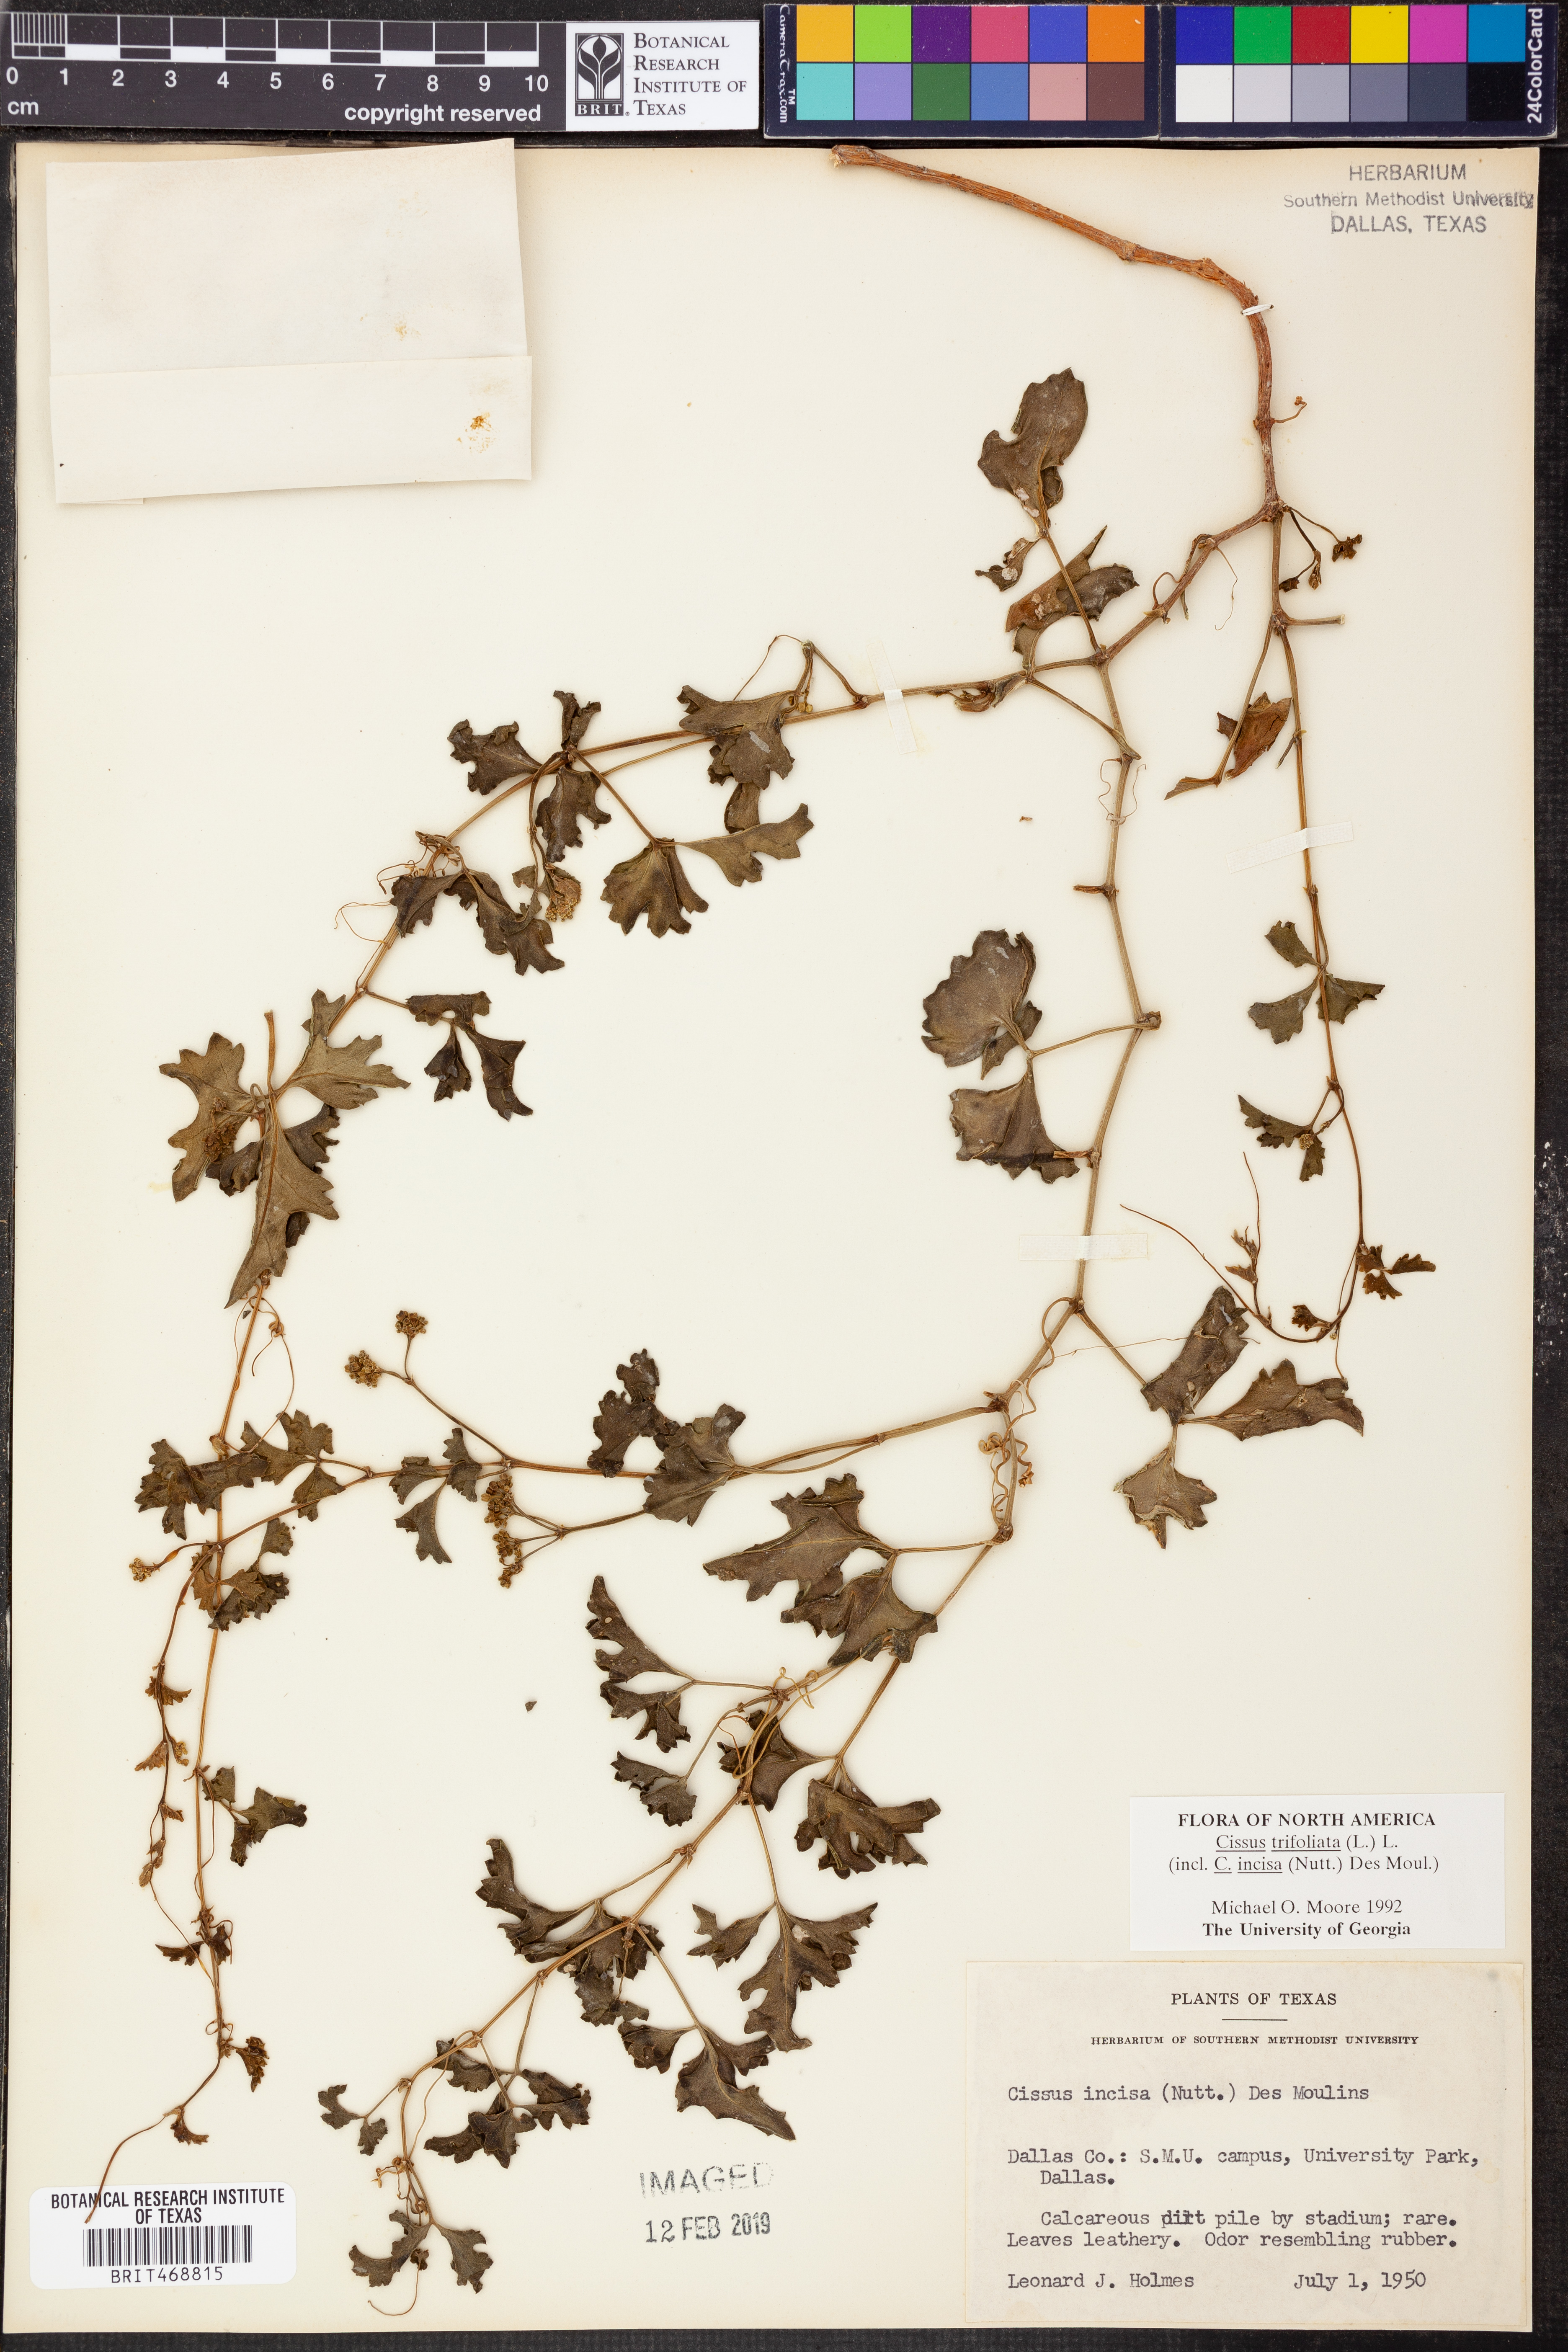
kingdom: Plantae
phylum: Tracheophyta
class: Magnoliopsida
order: Vitales
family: Vitaceae
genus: Cissus
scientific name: Cissus trifoliata
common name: Vine-sorrel
